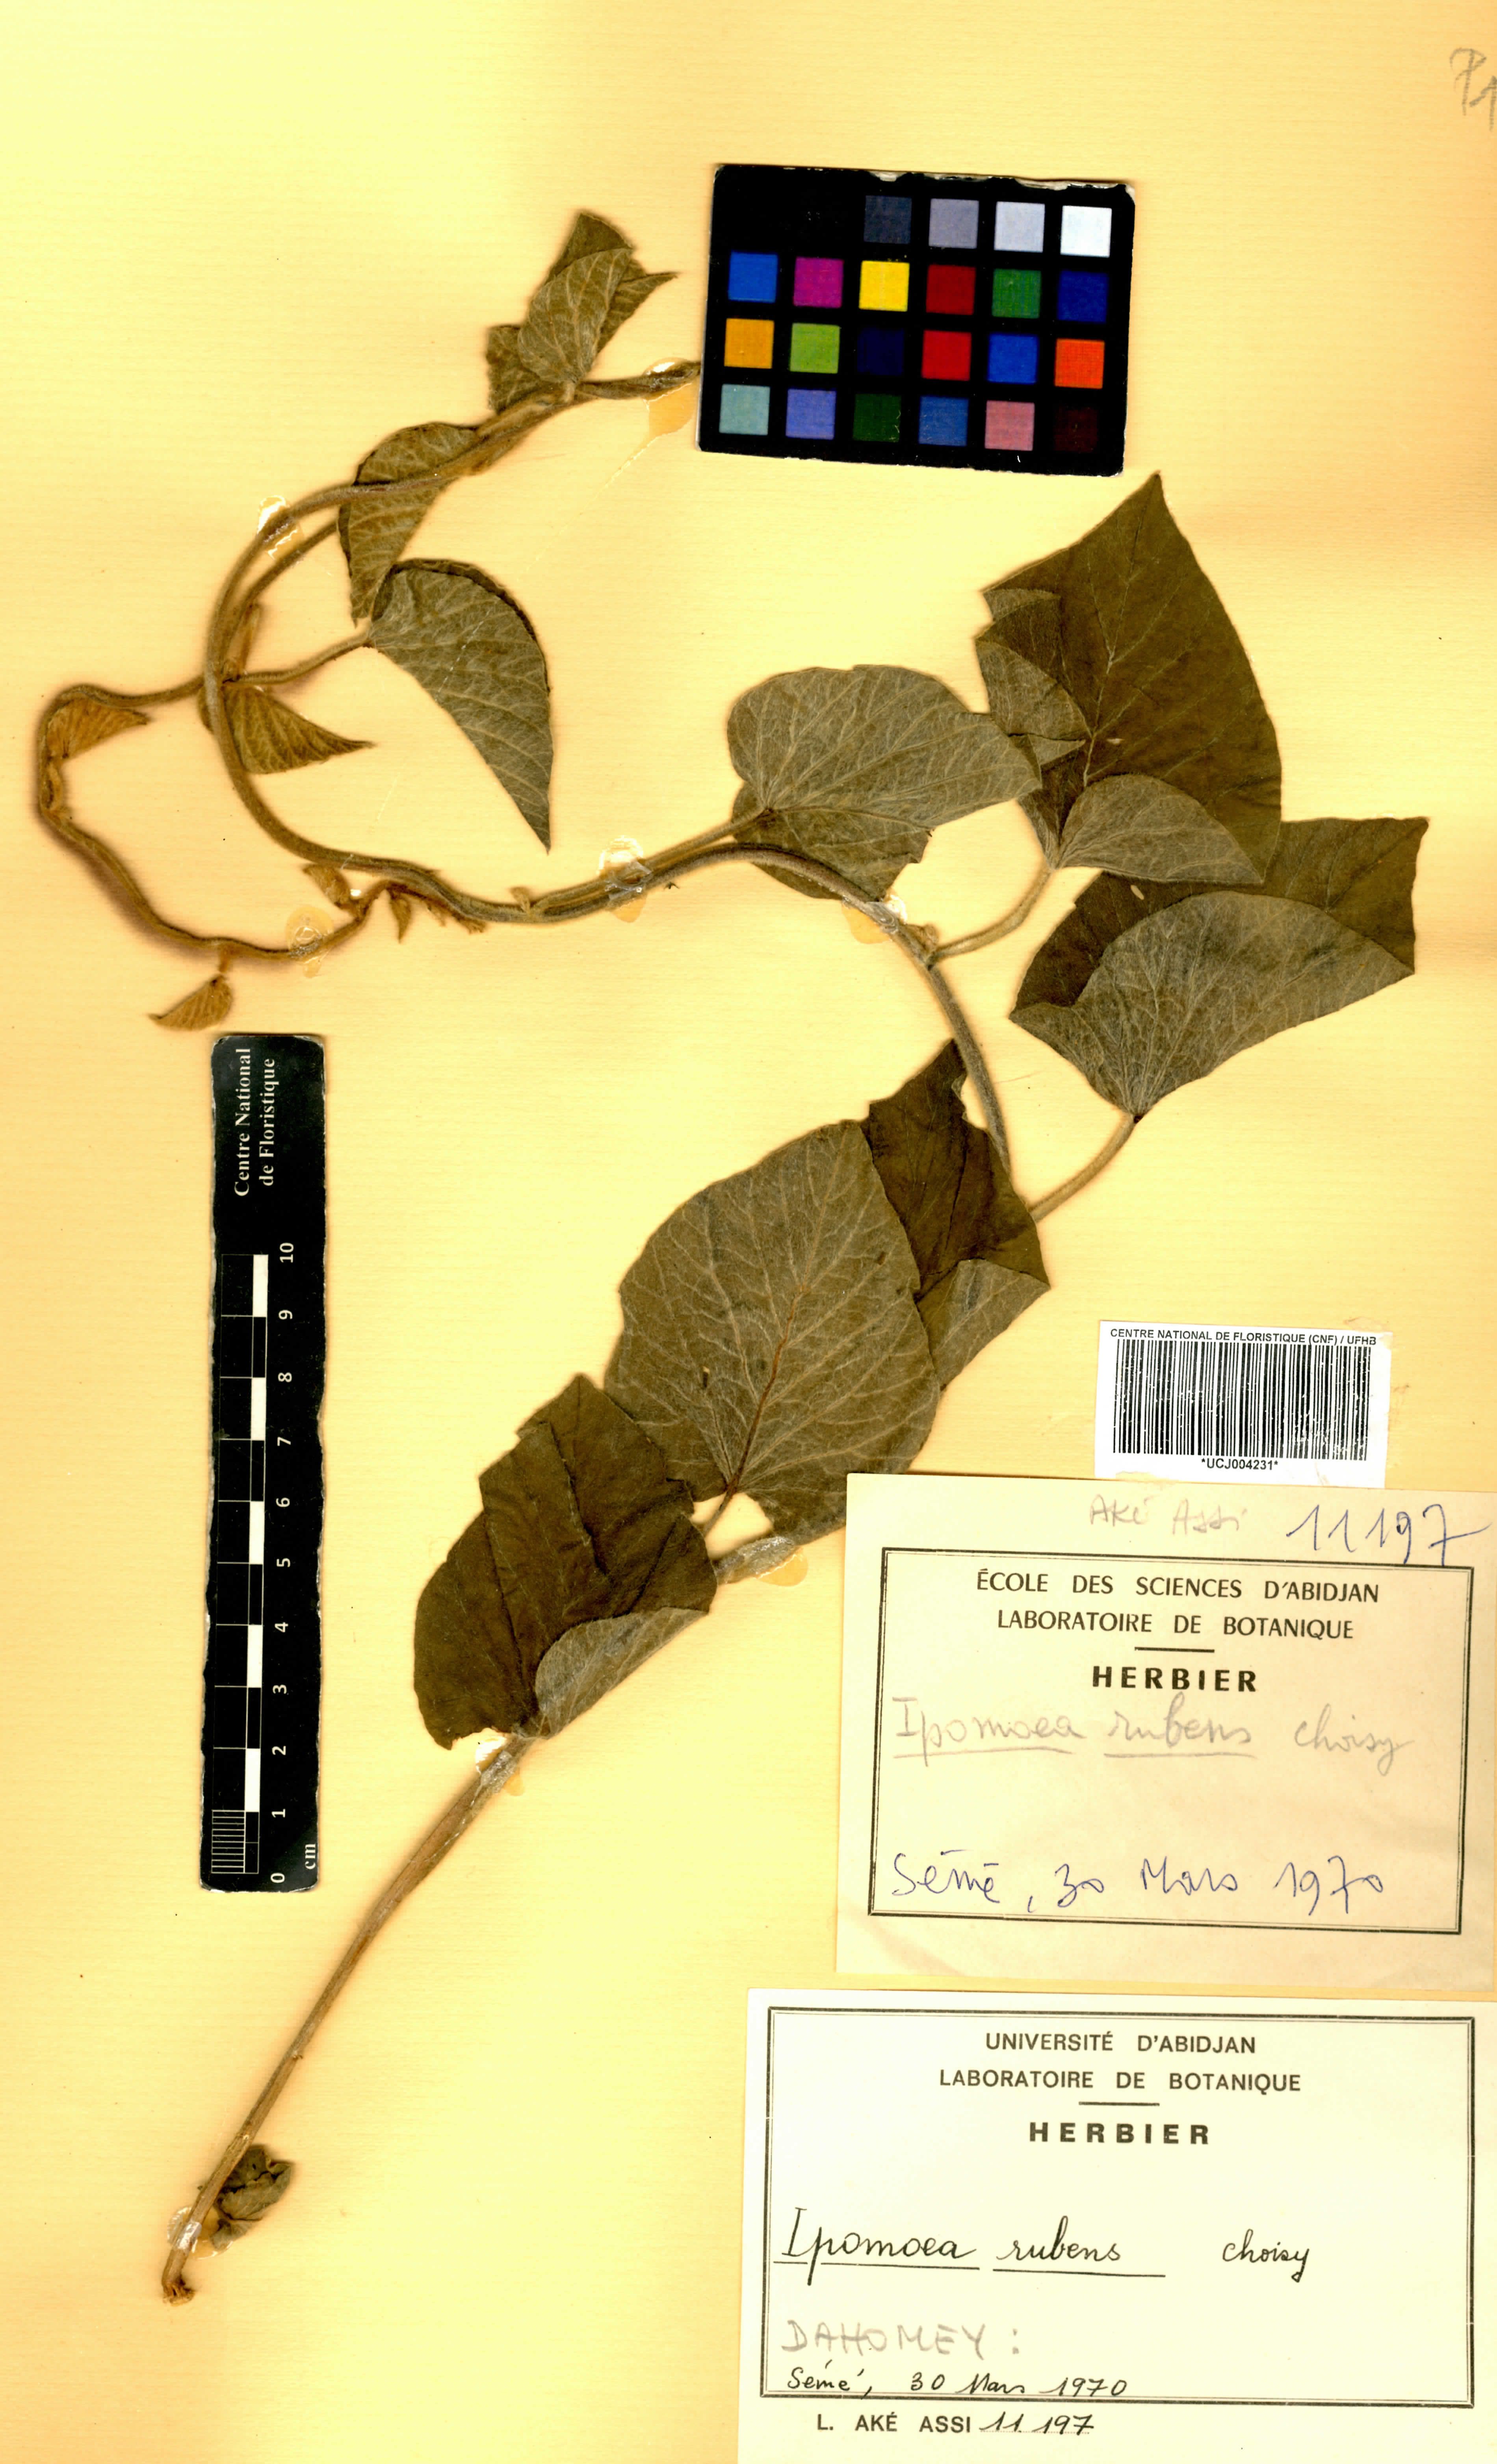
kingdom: Plantae
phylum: Tracheophyta
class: Magnoliopsida
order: Solanales
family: Convolvulaceae
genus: Ipomoea
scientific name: Ipomoea rubens
